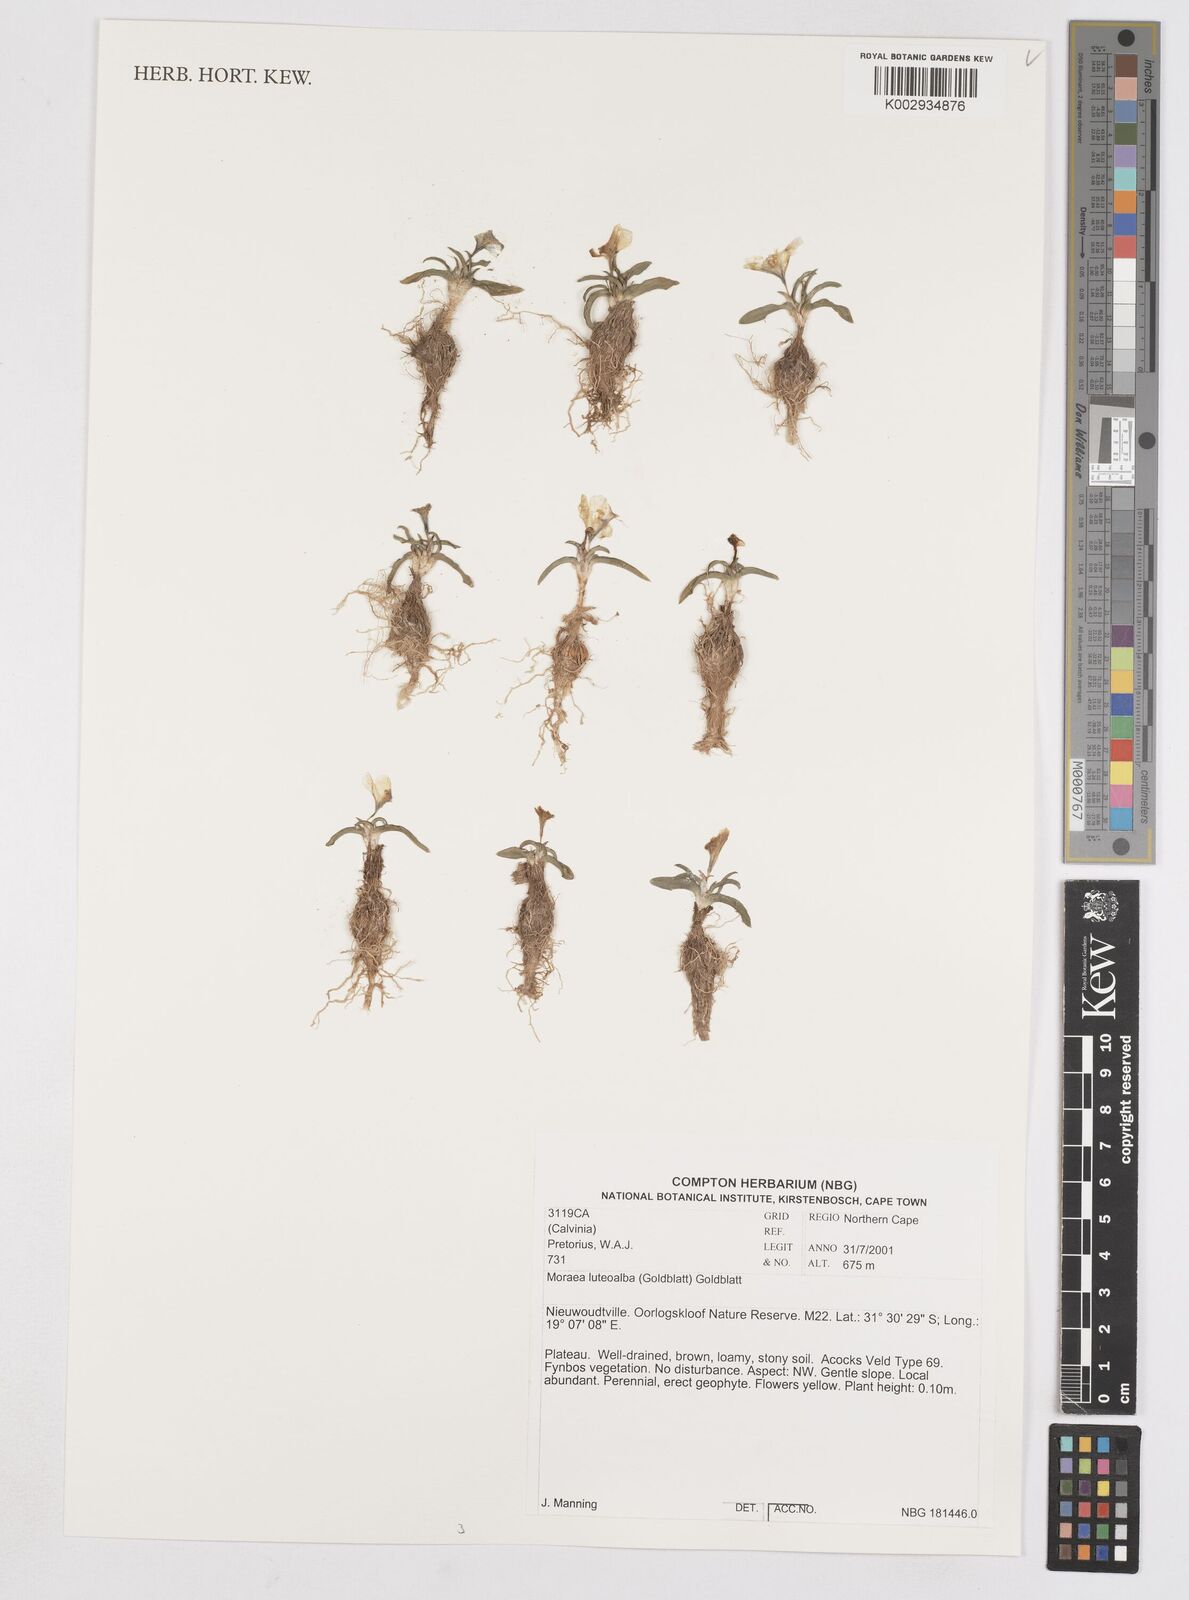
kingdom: Plantae
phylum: Tracheophyta
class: Liliopsida
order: Asparagales
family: Iridaceae
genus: Moraea
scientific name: Moraea luteoalba
